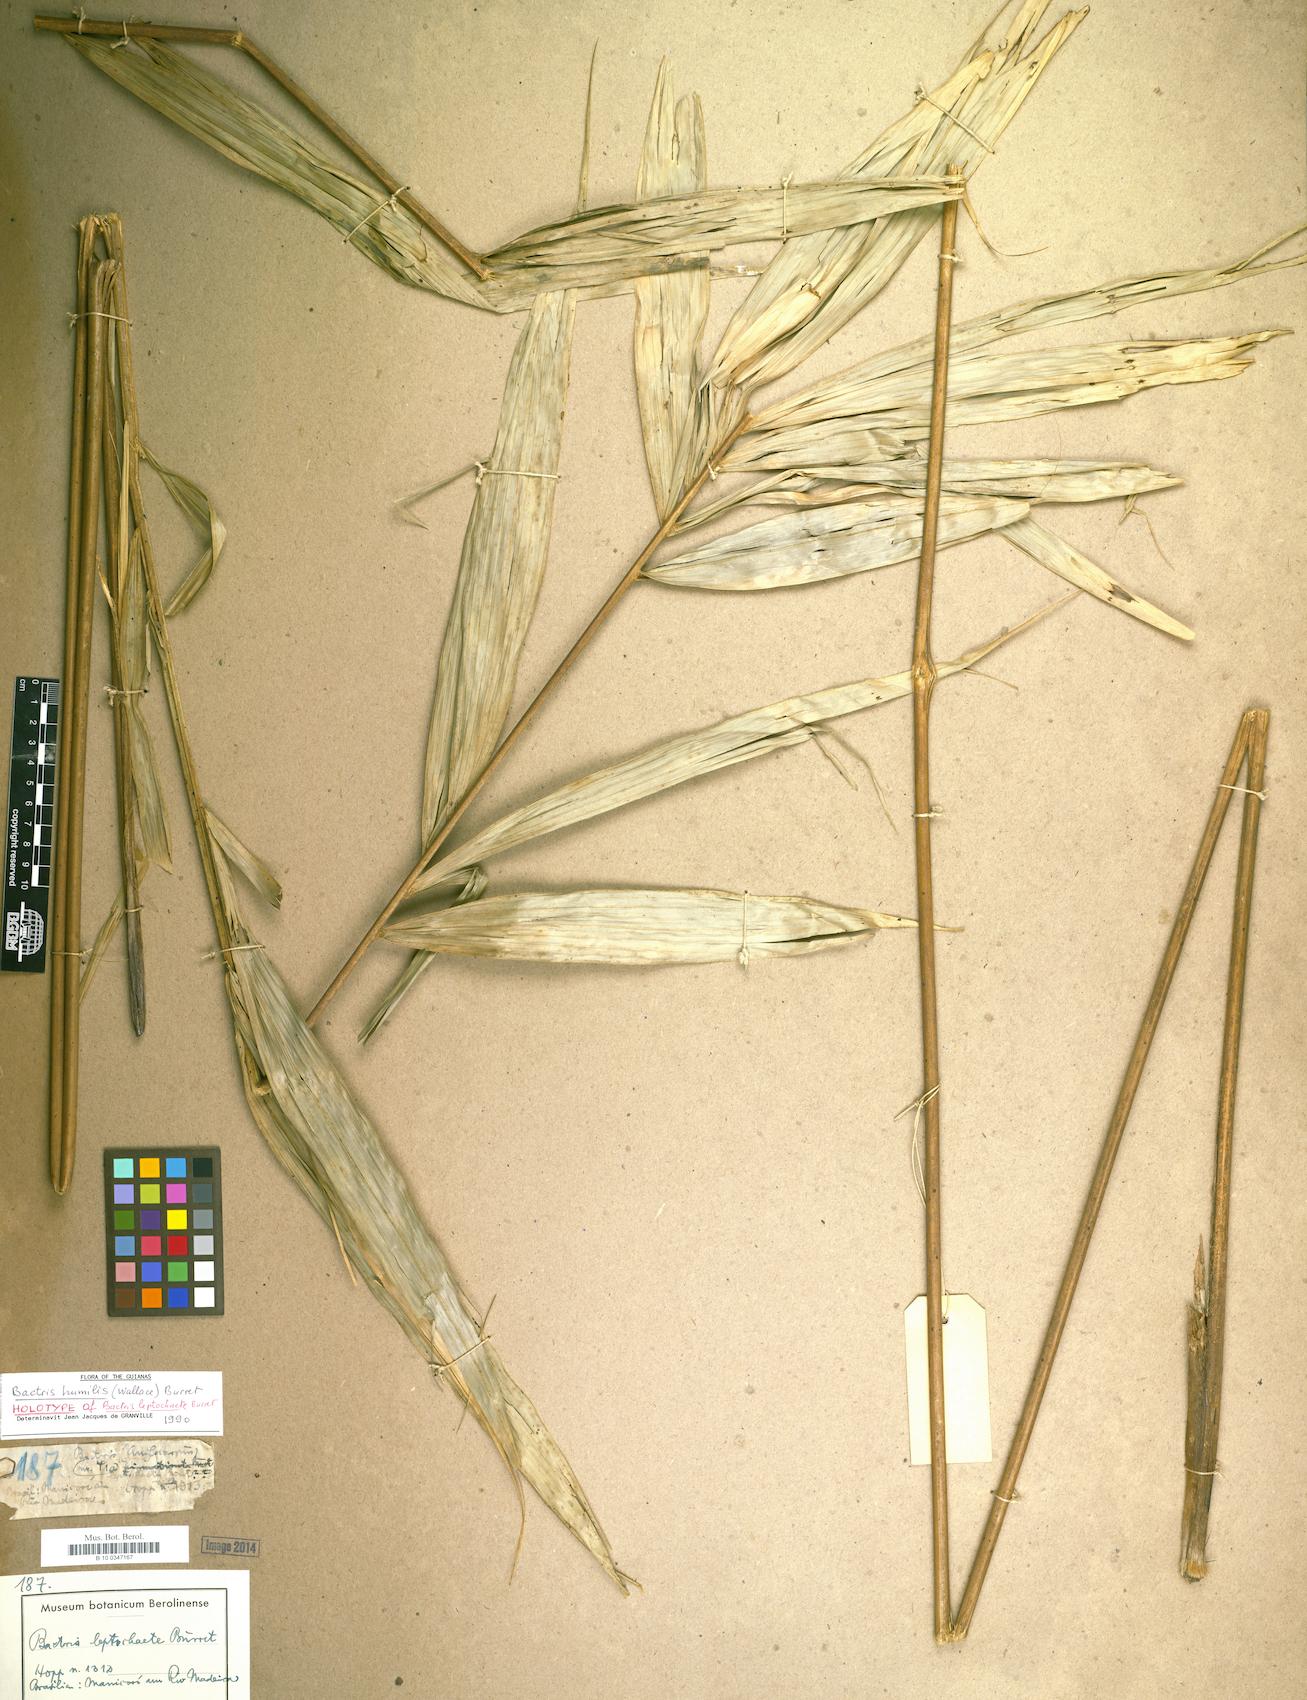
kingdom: Plantae
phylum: Tracheophyta
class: Liliopsida
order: Arecales
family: Arecaceae
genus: Bactris
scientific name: Bactris acanthocarpa
